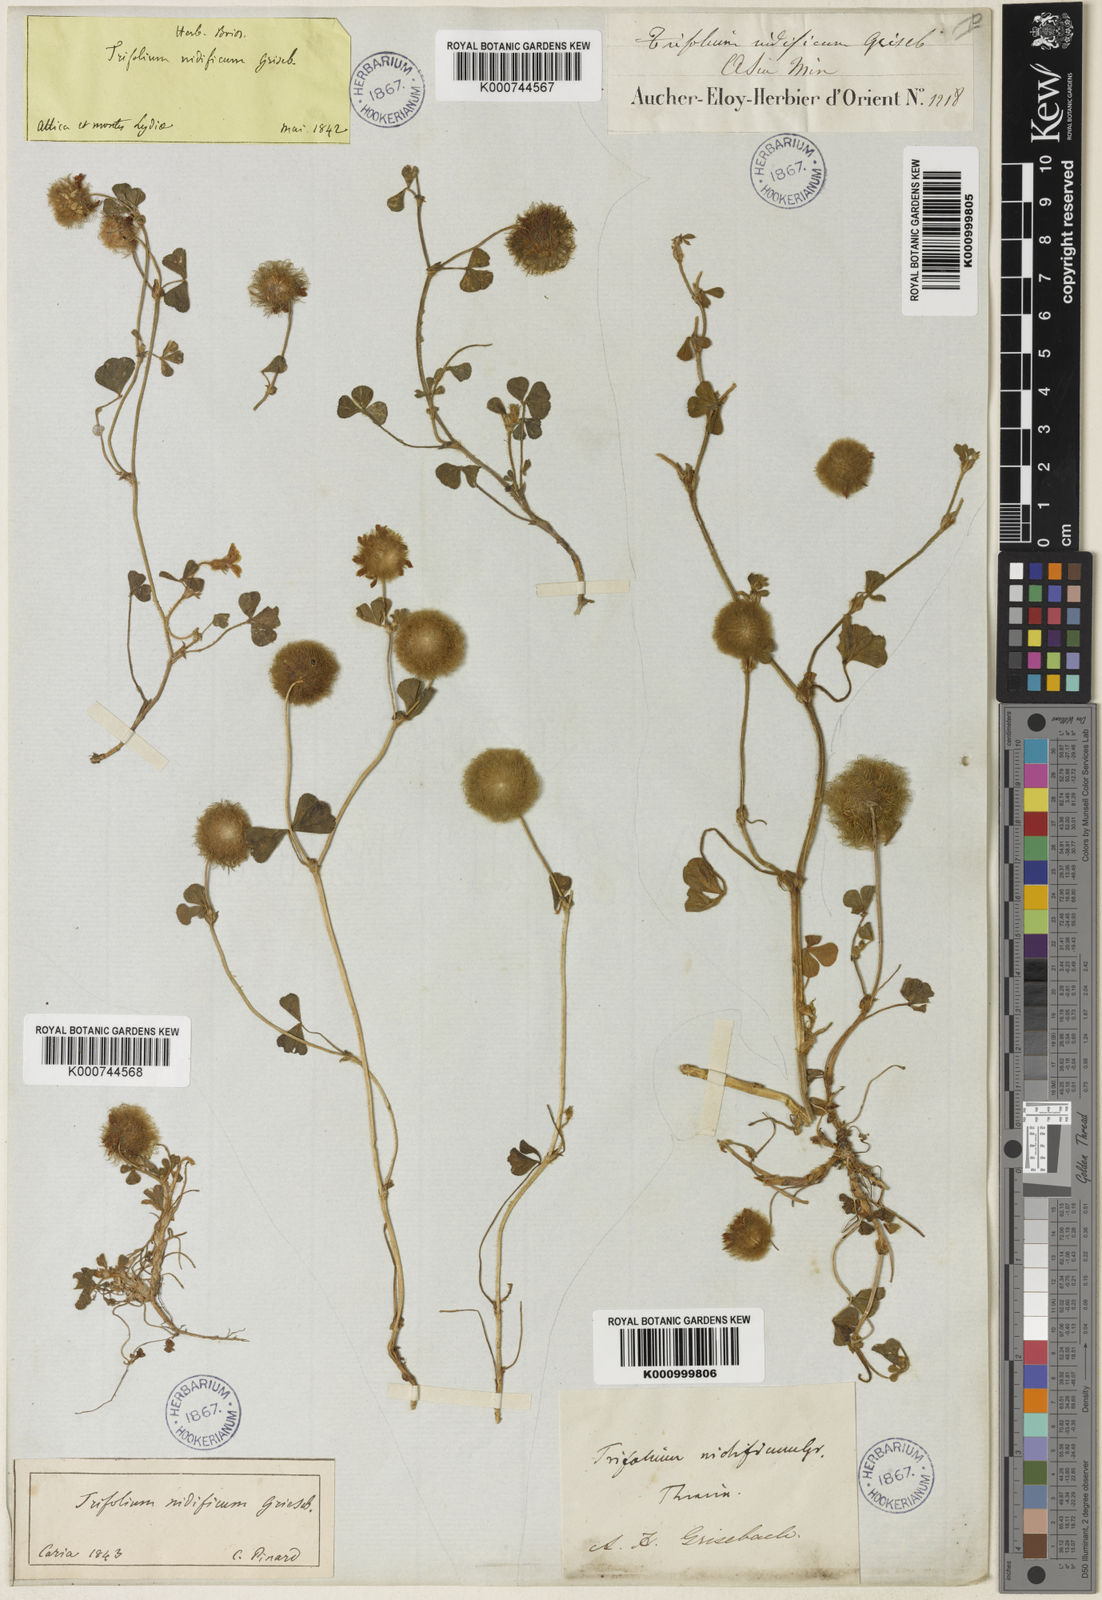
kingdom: Plantae
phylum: Tracheophyta
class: Magnoliopsida
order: Fabales
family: Fabaceae
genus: Trifolium
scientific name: Trifolium globosum
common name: Round-head clover
